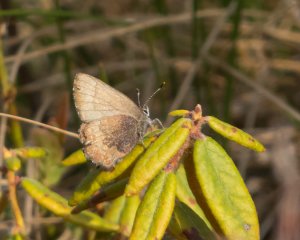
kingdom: Animalia
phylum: Arthropoda
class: Insecta
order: Lepidoptera
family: Lycaenidae
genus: Incisalia
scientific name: Incisalia irioides
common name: Brown Elfin
